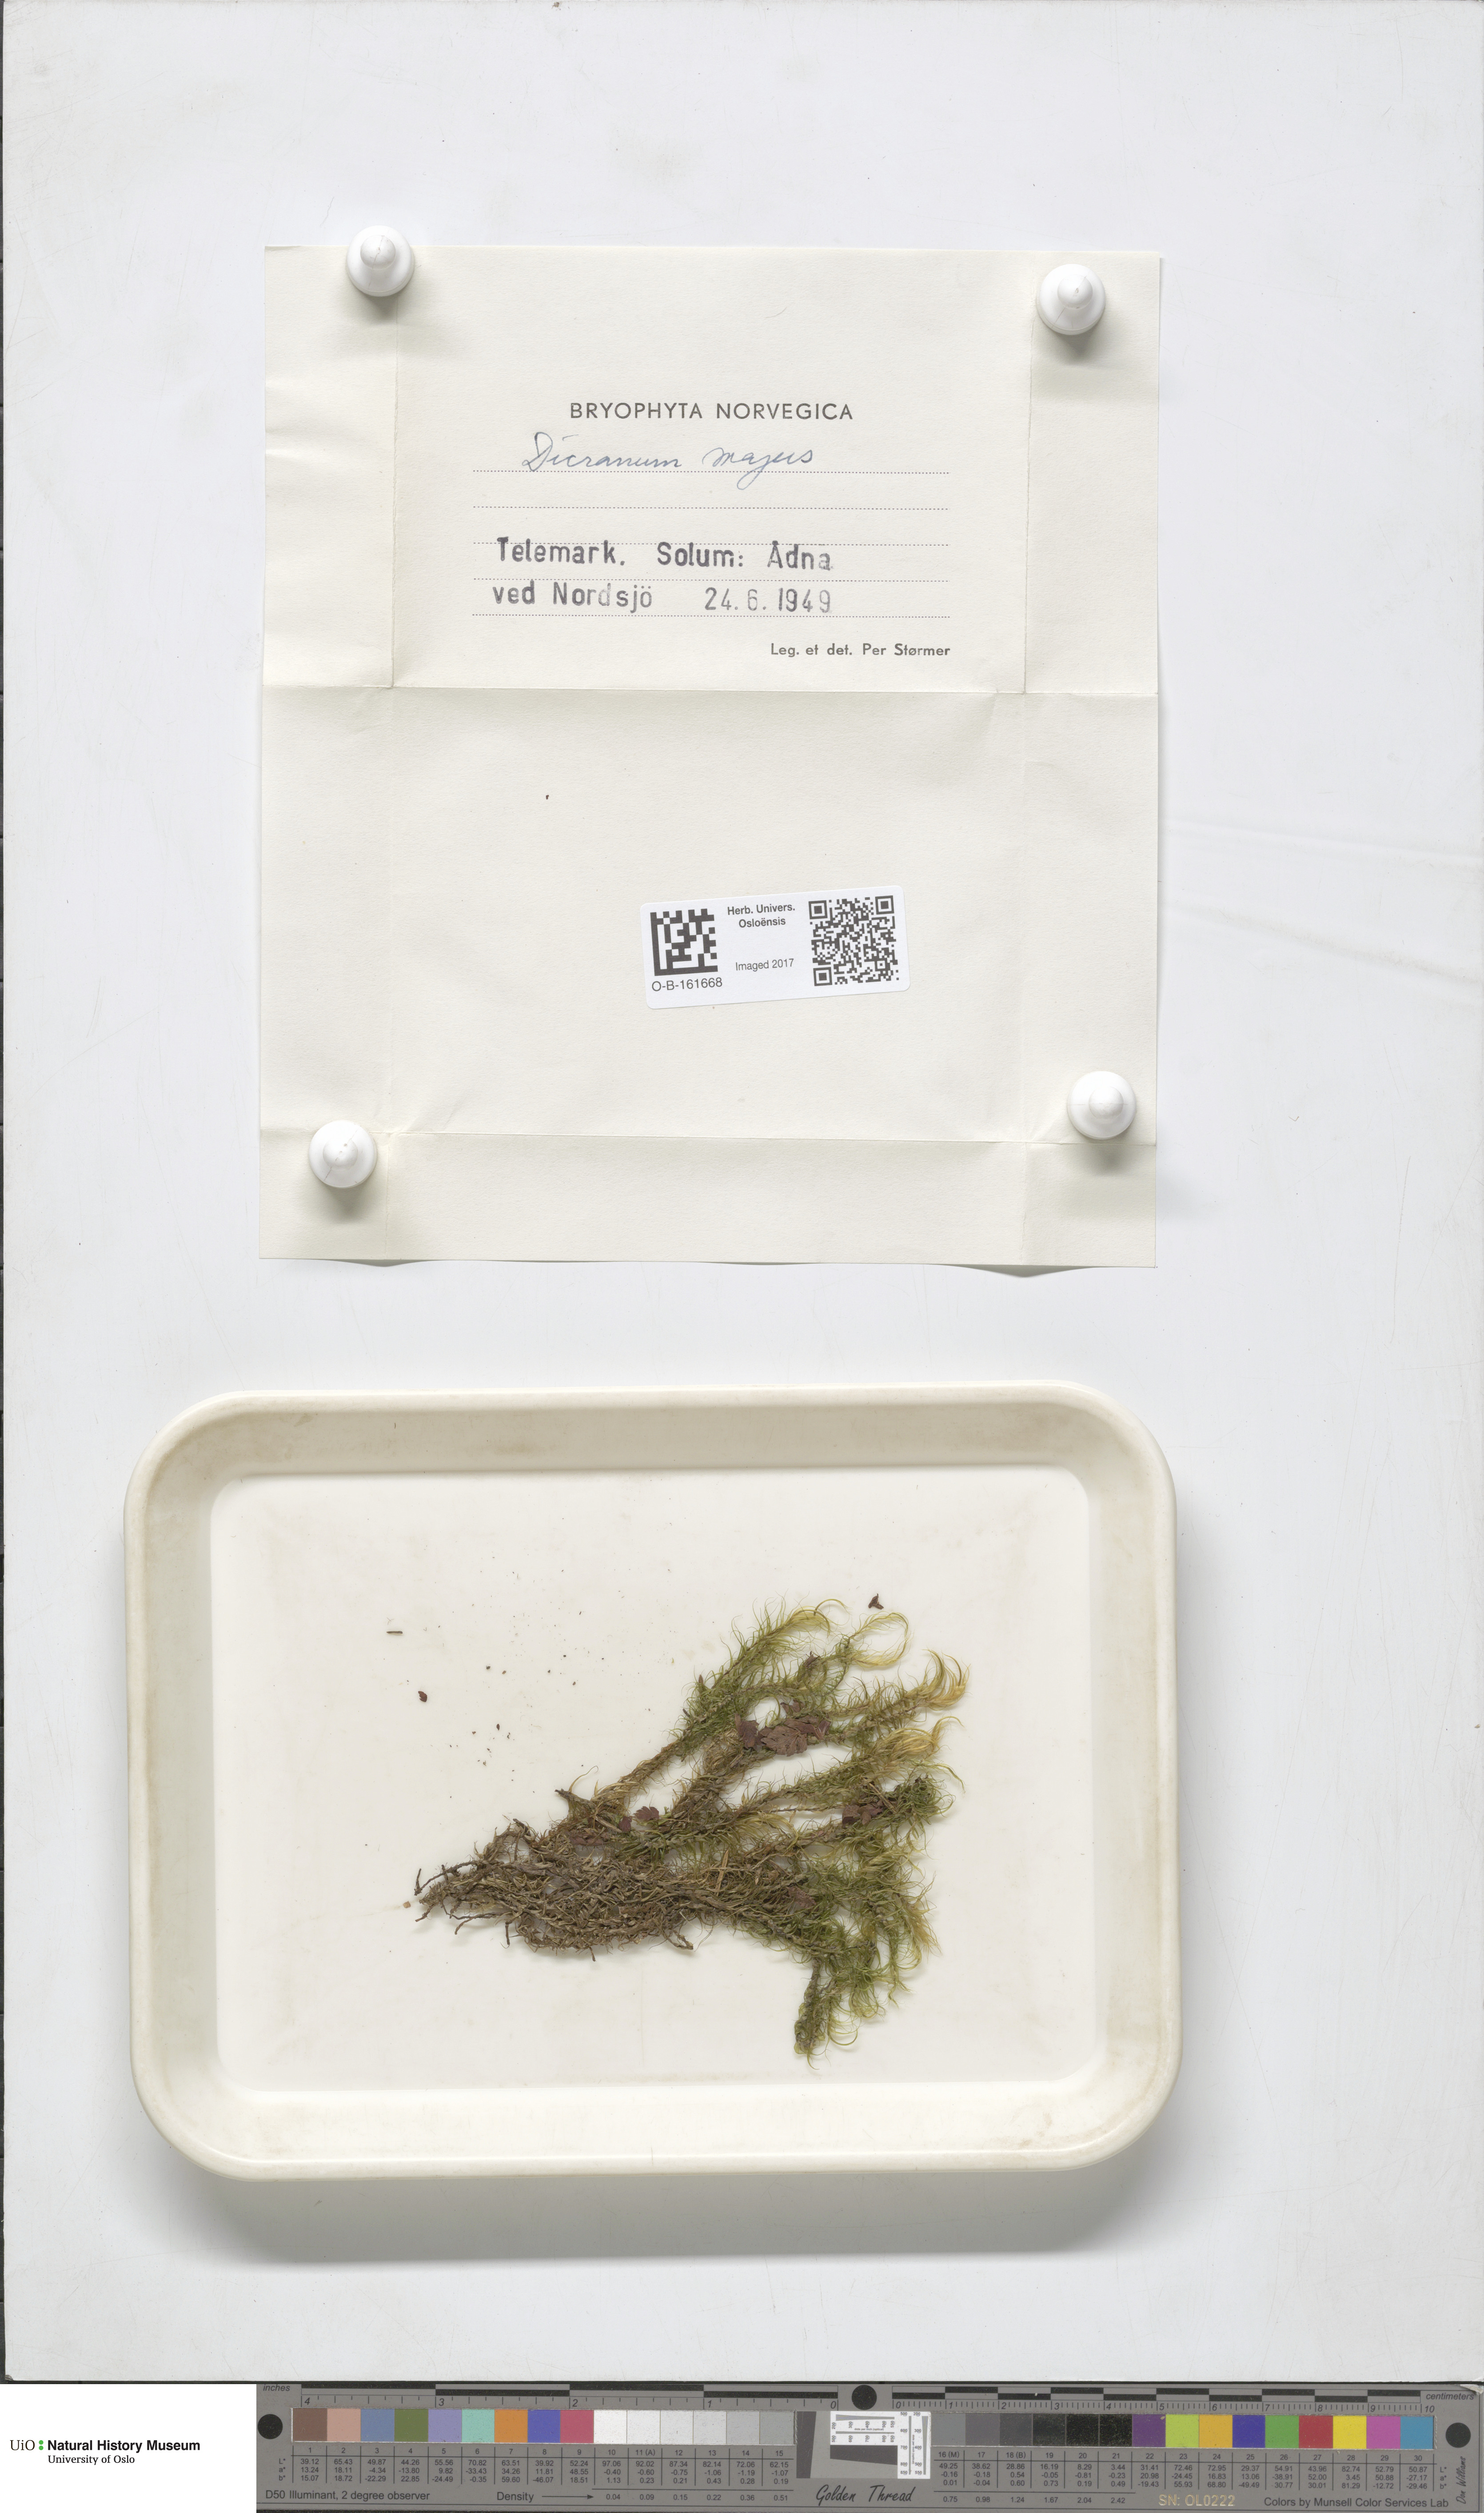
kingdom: Plantae
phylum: Bryophyta
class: Bryopsida
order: Dicranales
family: Dicranaceae
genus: Dicranum
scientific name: Dicranum majus
